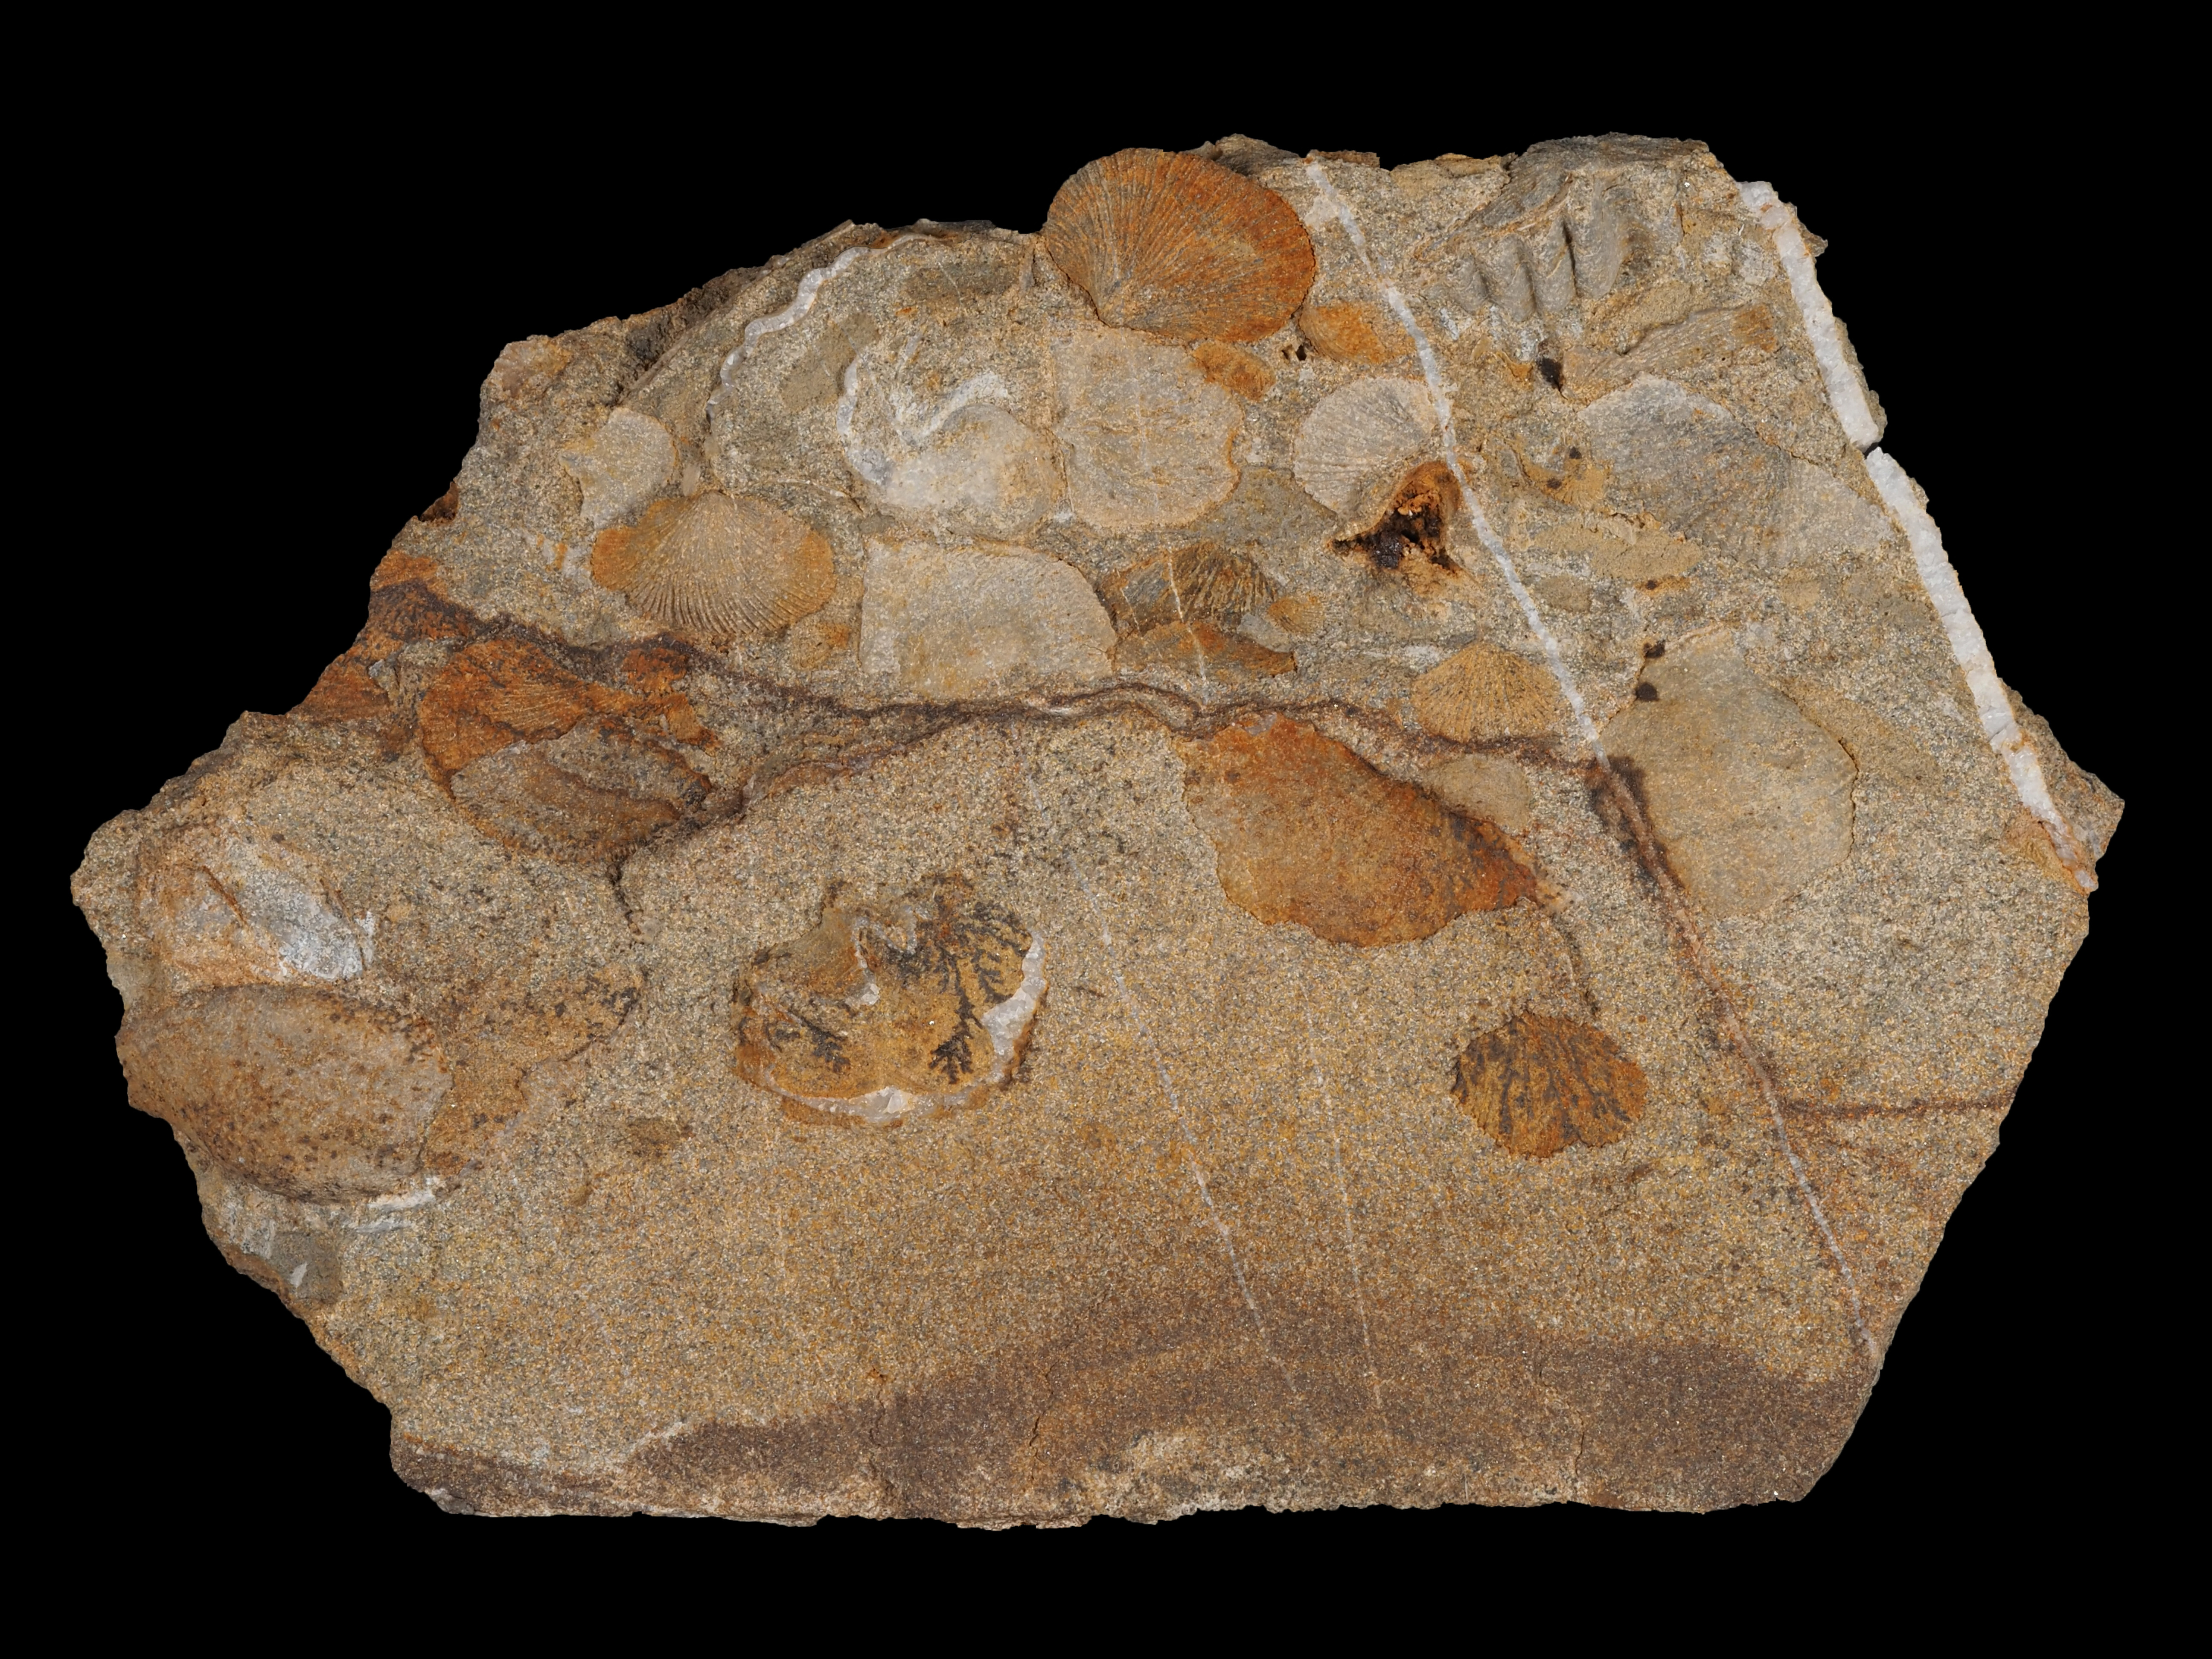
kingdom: Animalia
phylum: Brachiopoda
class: Rhynchonellata
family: Hysterolitidae
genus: Arduspirifer
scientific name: Arduspirifer Spirifer arduennensis
